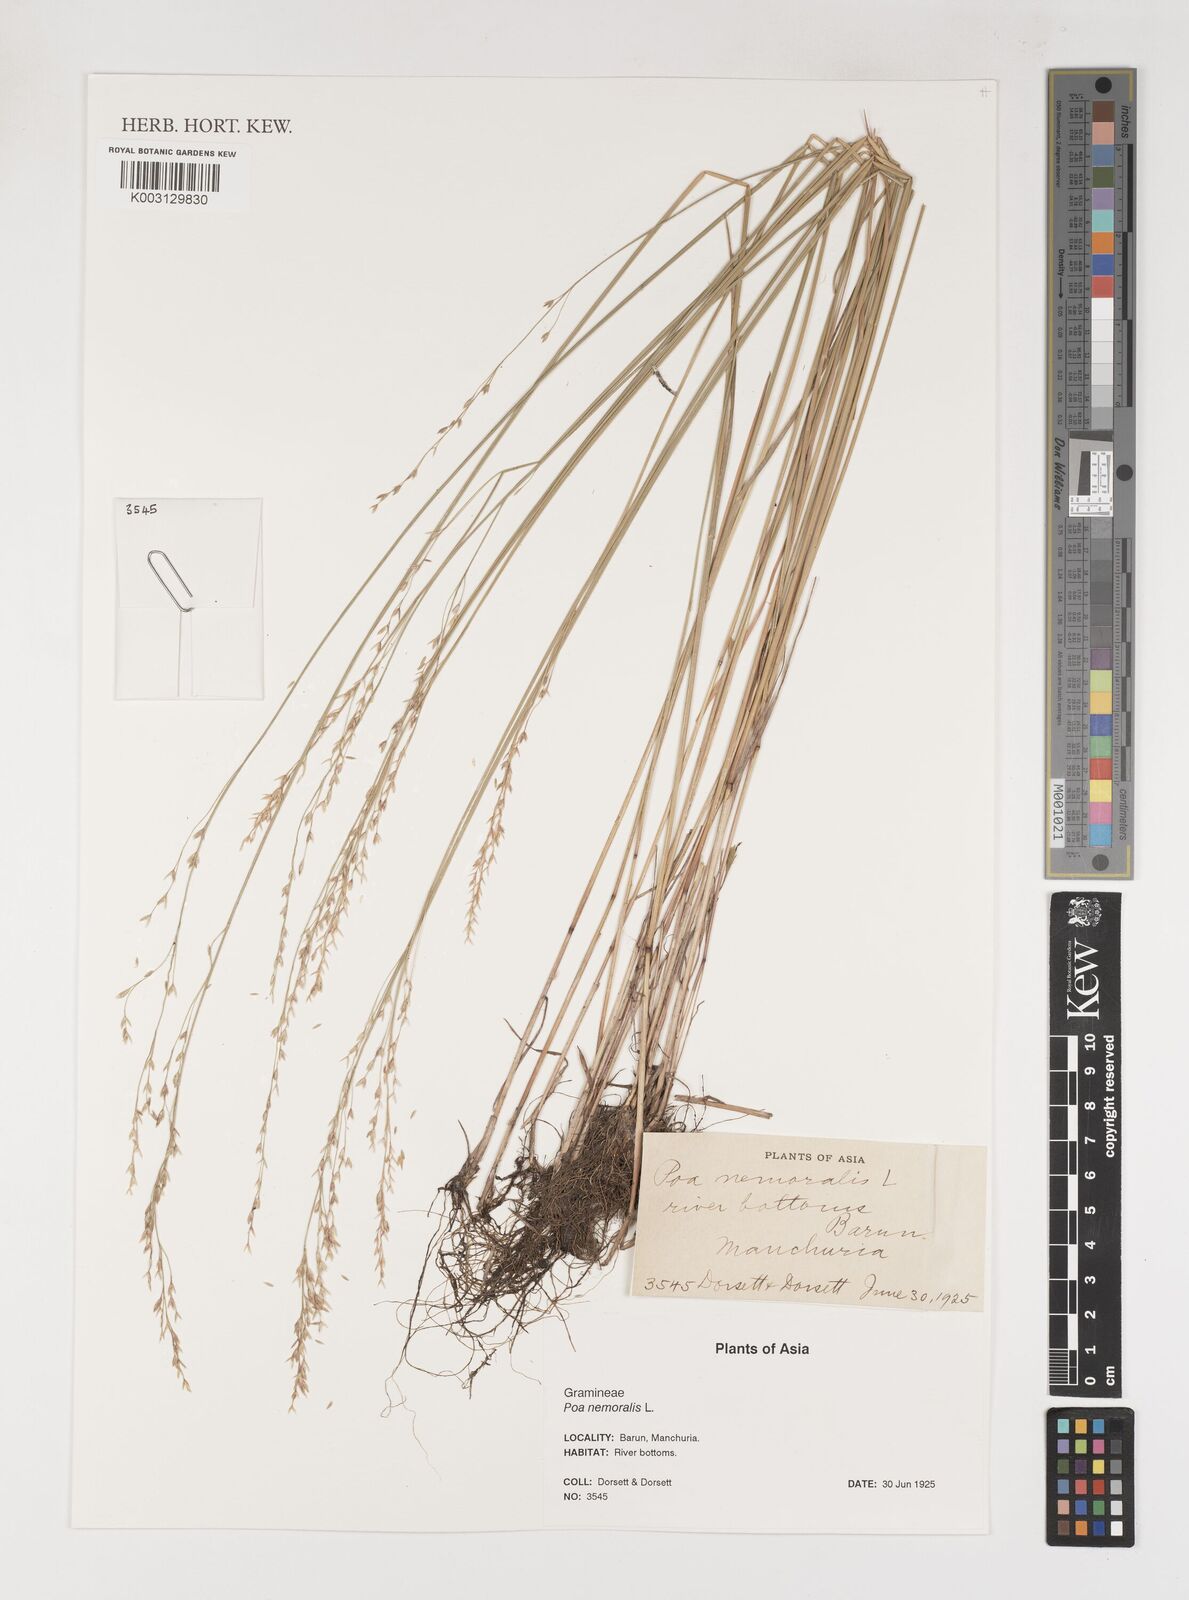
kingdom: Plantae
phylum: Tracheophyta
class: Liliopsida
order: Poales
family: Poaceae
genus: Poa
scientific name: Poa nemoralis
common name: Wood bluegrass
